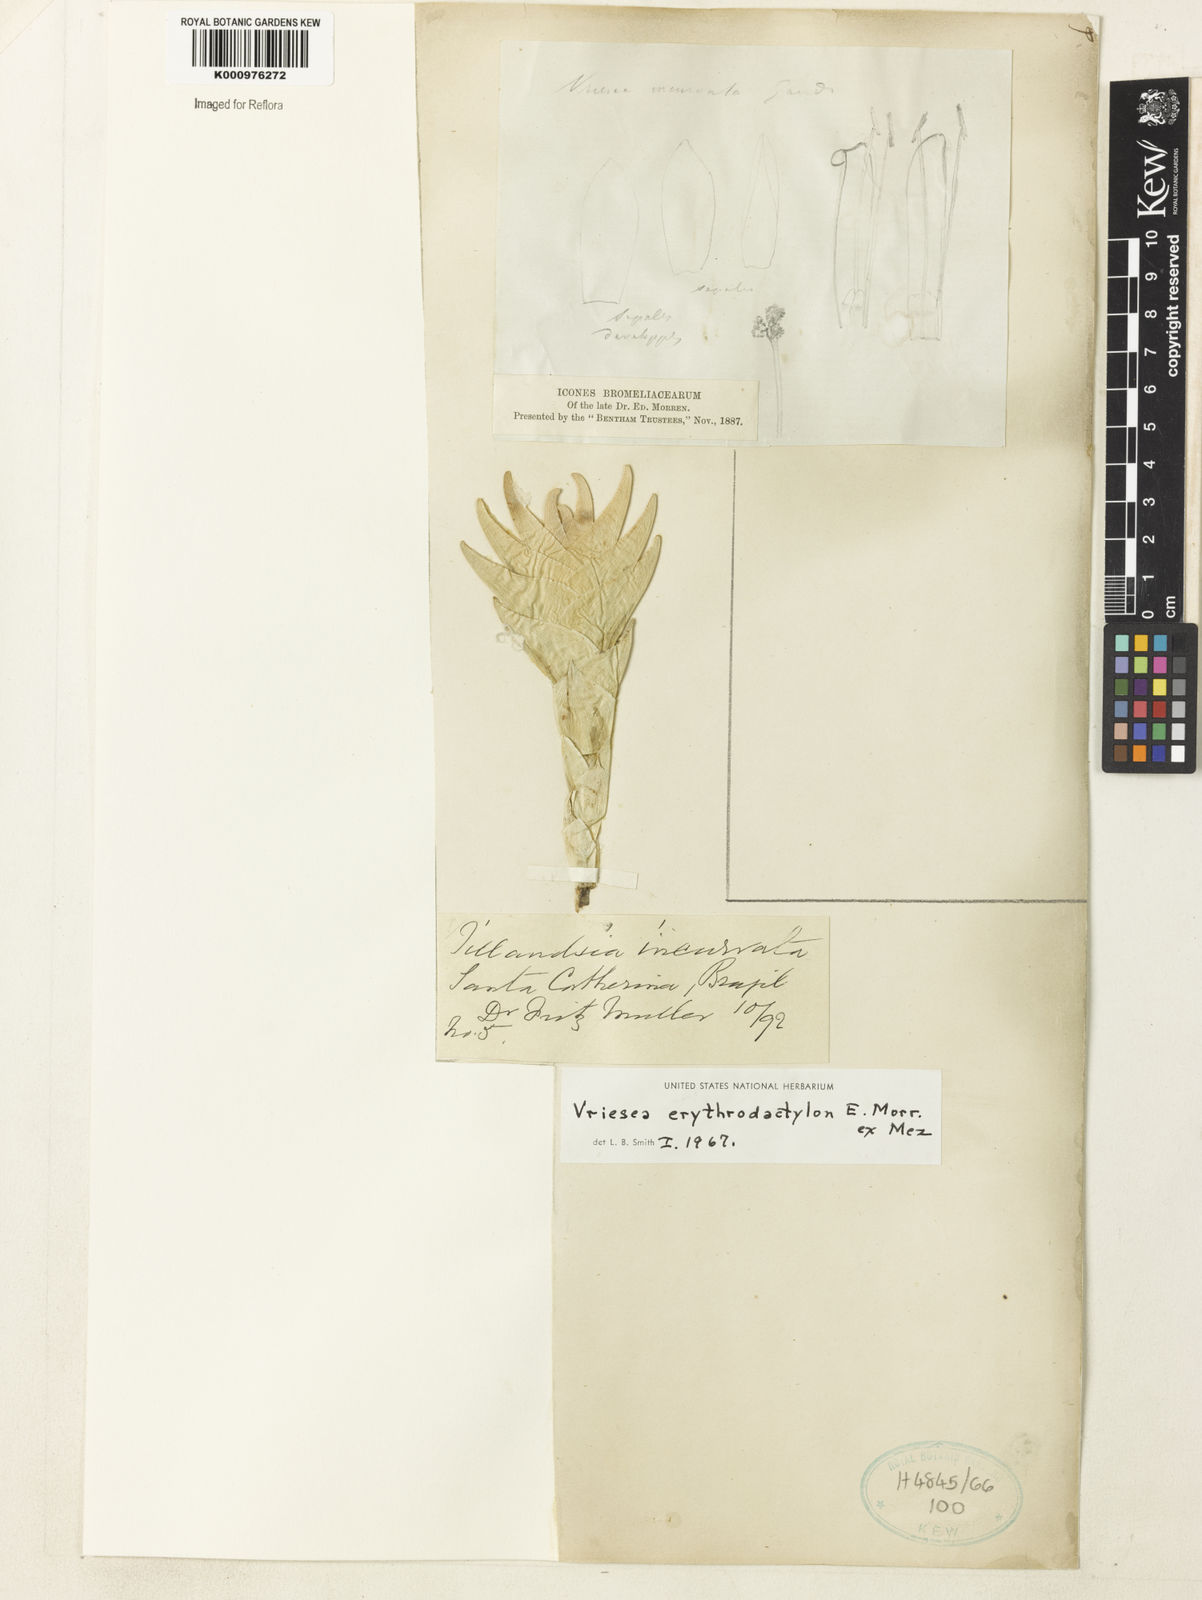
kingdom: Plantae
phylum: Tracheophyta
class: Liliopsida
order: Poales
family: Bromeliaceae
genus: Vriesea
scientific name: Vriesea
